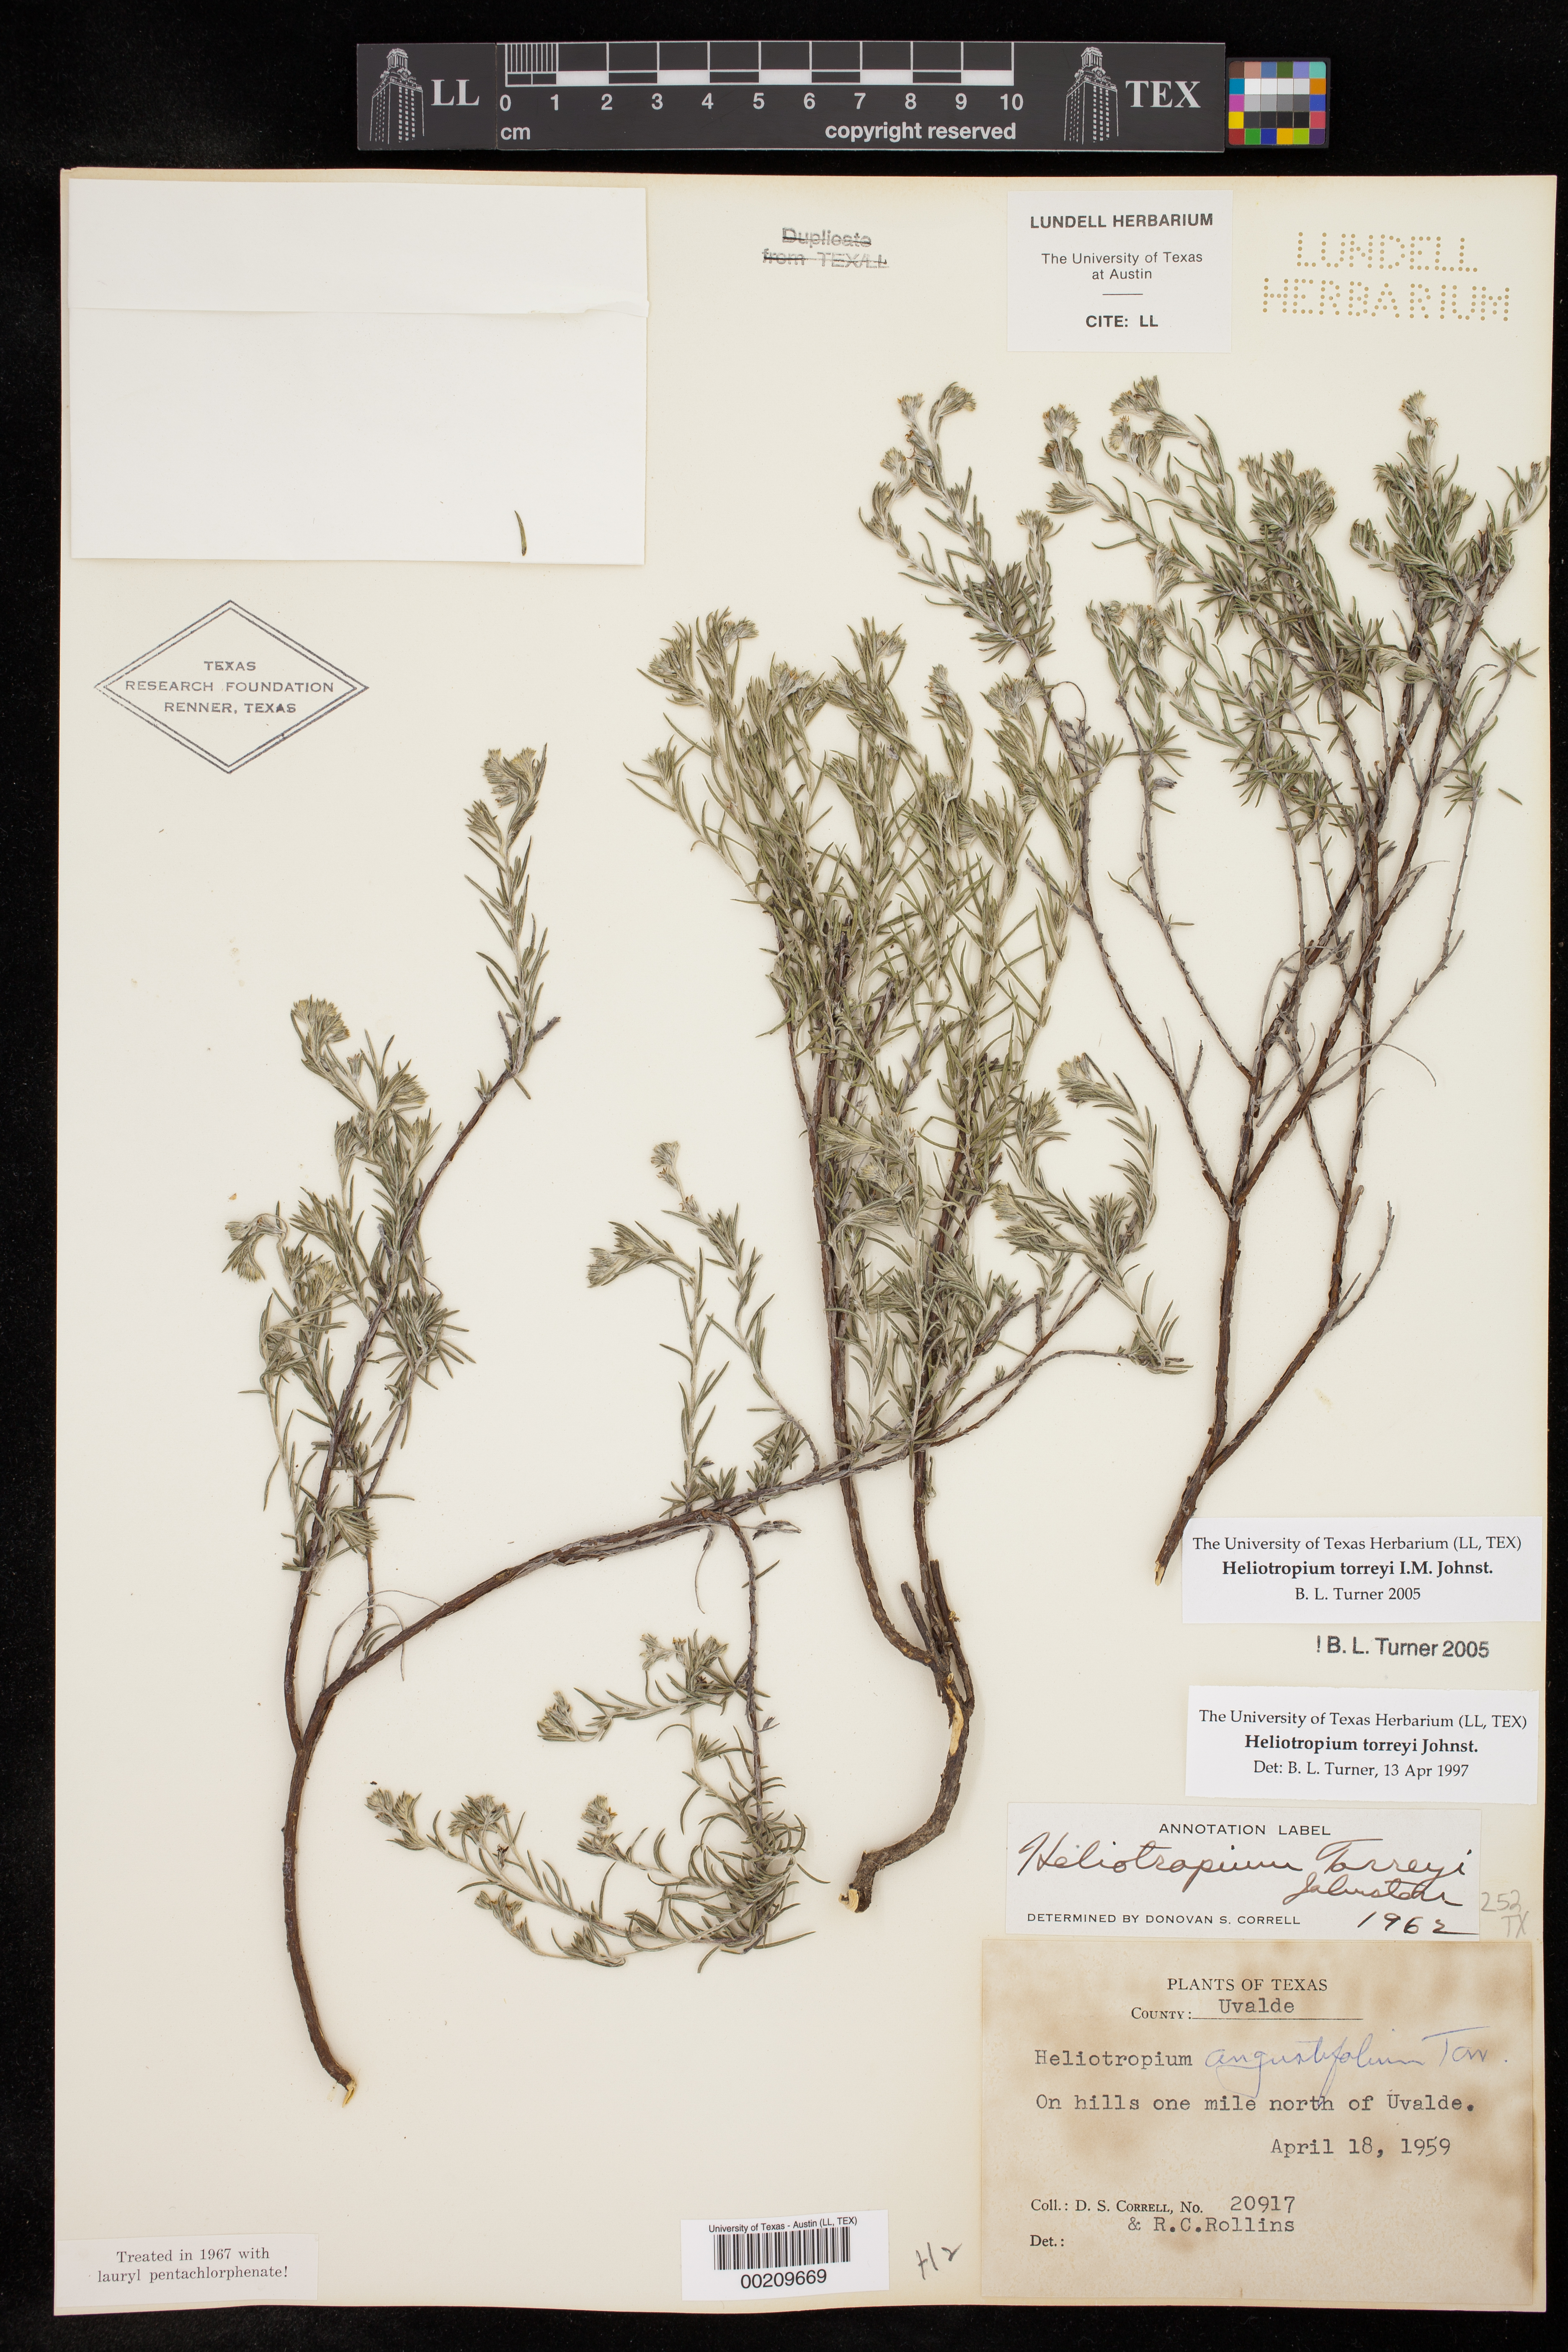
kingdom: Plantae
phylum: Tracheophyta
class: Magnoliopsida
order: Boraginales
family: Heliotropiaceae
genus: Euploca
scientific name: Euploca torreyi
